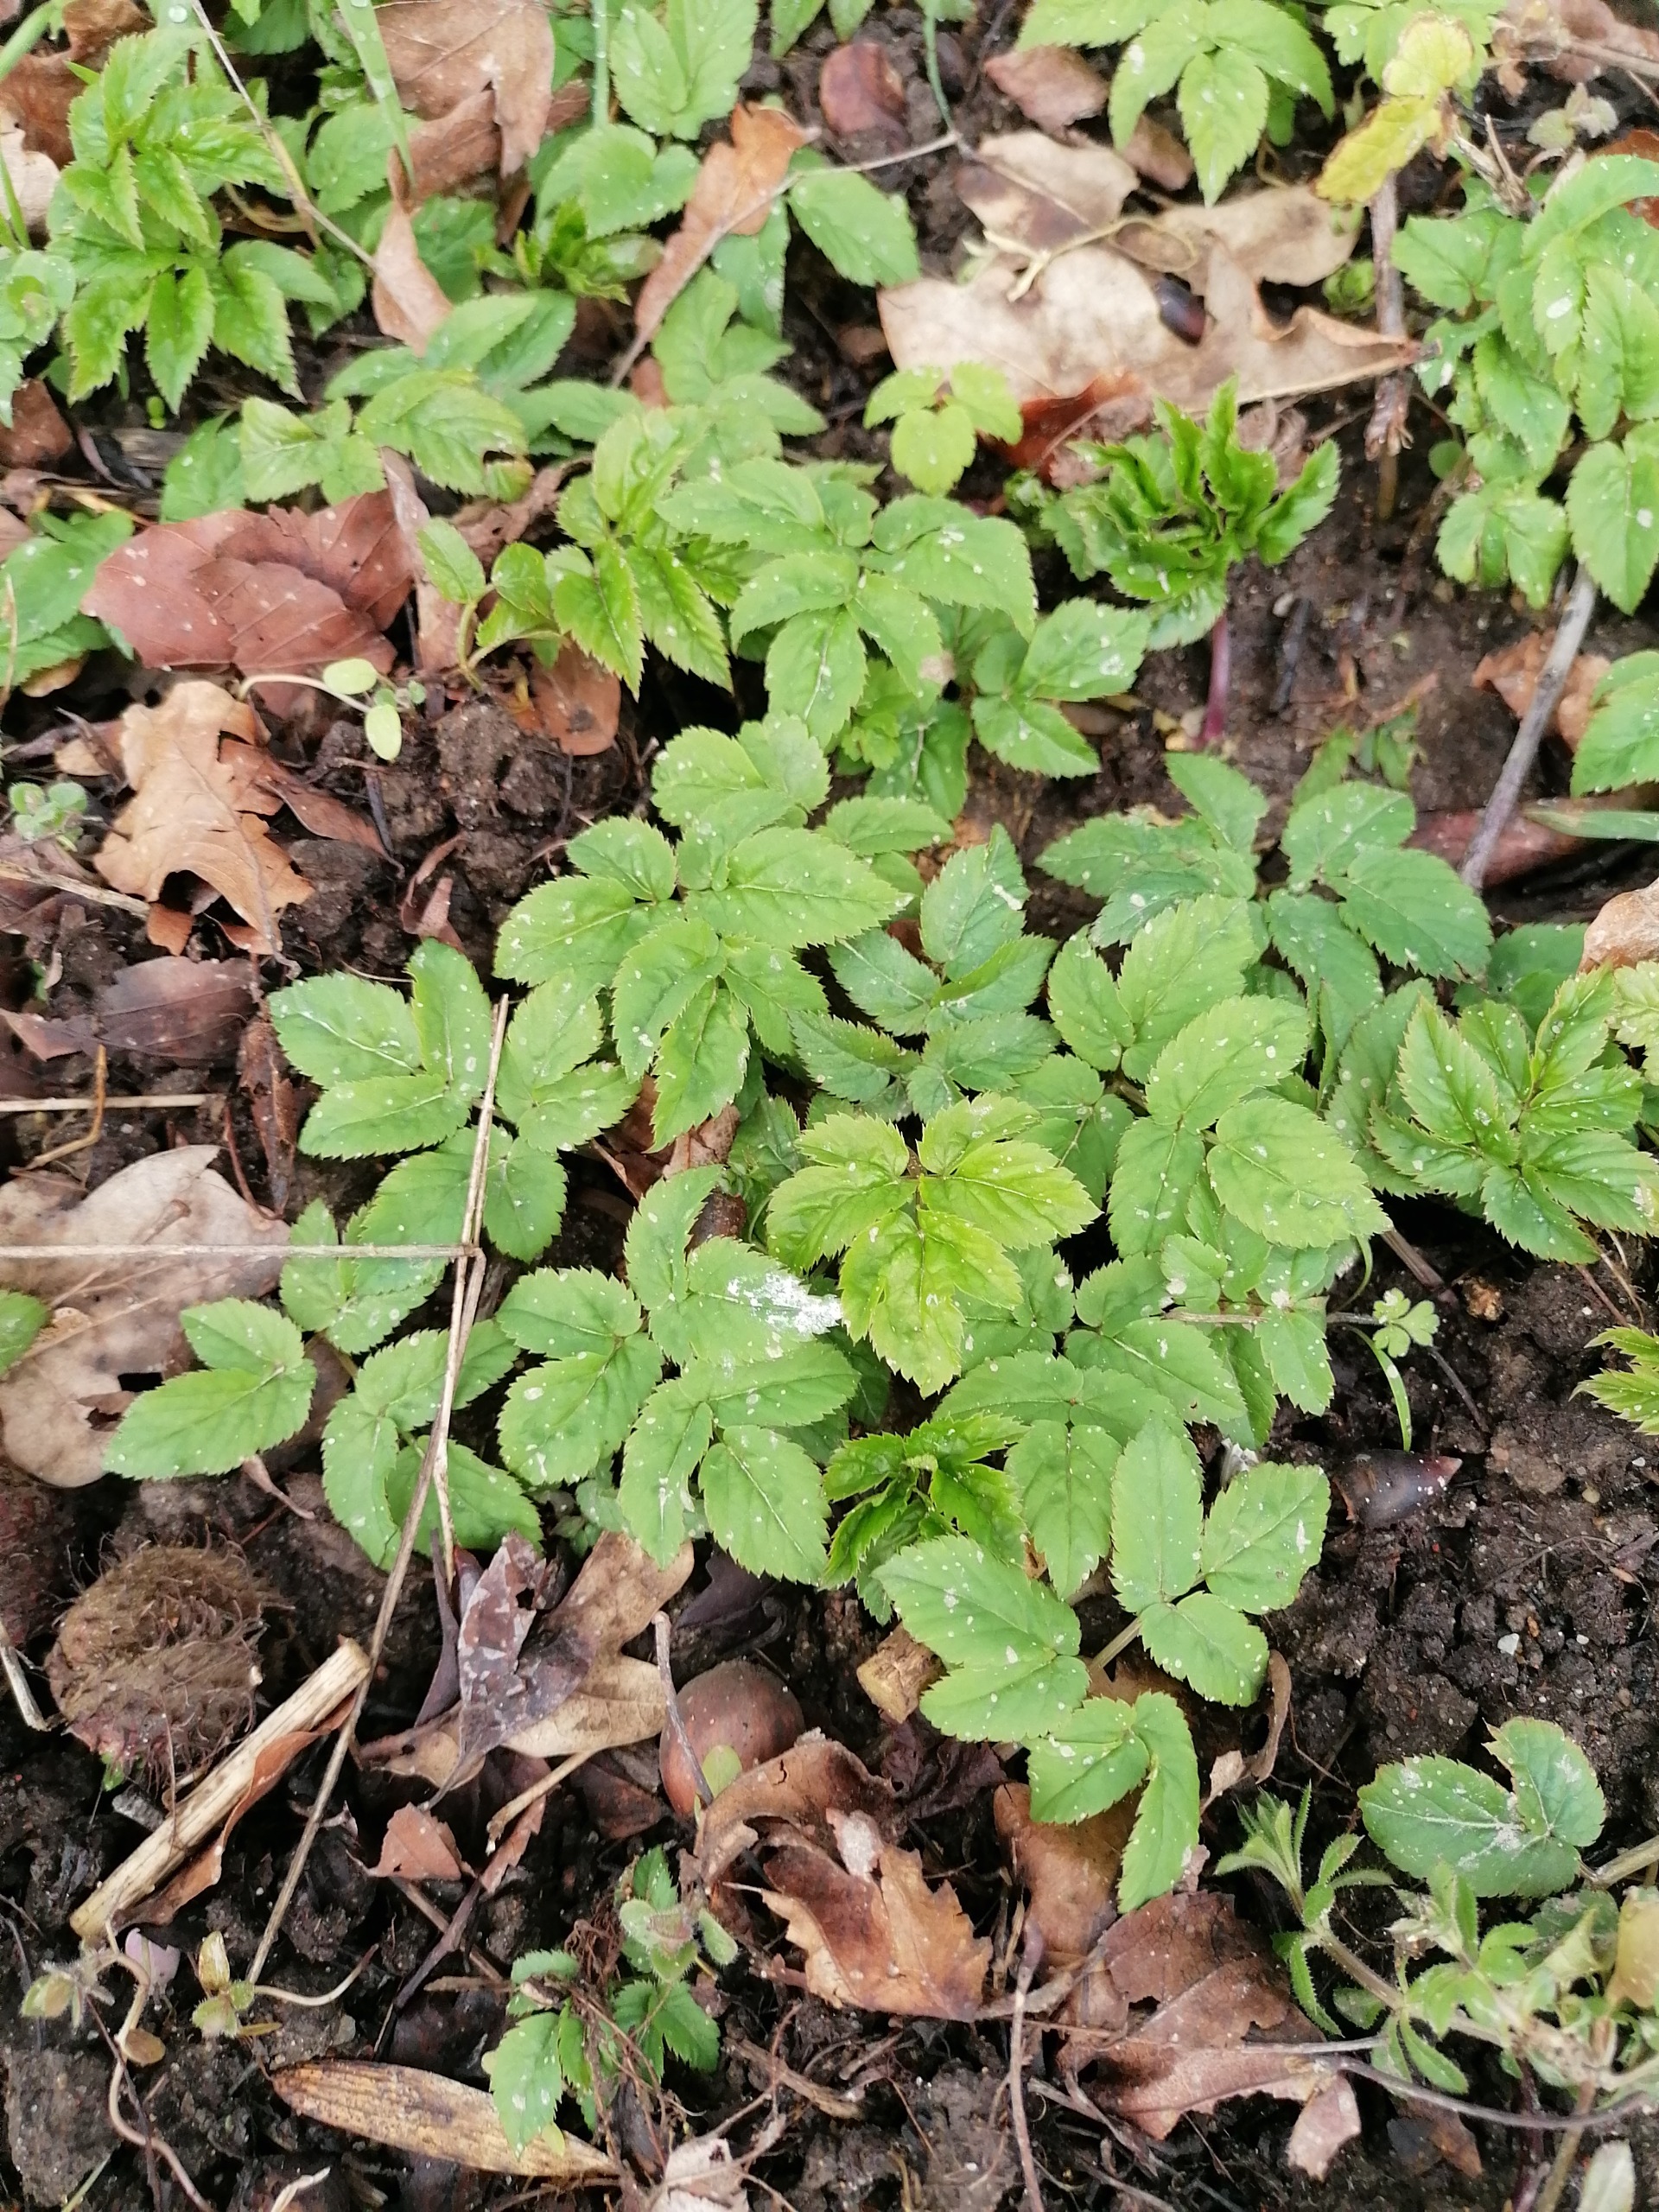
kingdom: Plantae
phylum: Tracheophyta
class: Magnoliopsida
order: Apiales
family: Apiaceae
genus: Aegopodium
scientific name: Aegopodium podagraria
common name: Skvalderkål
